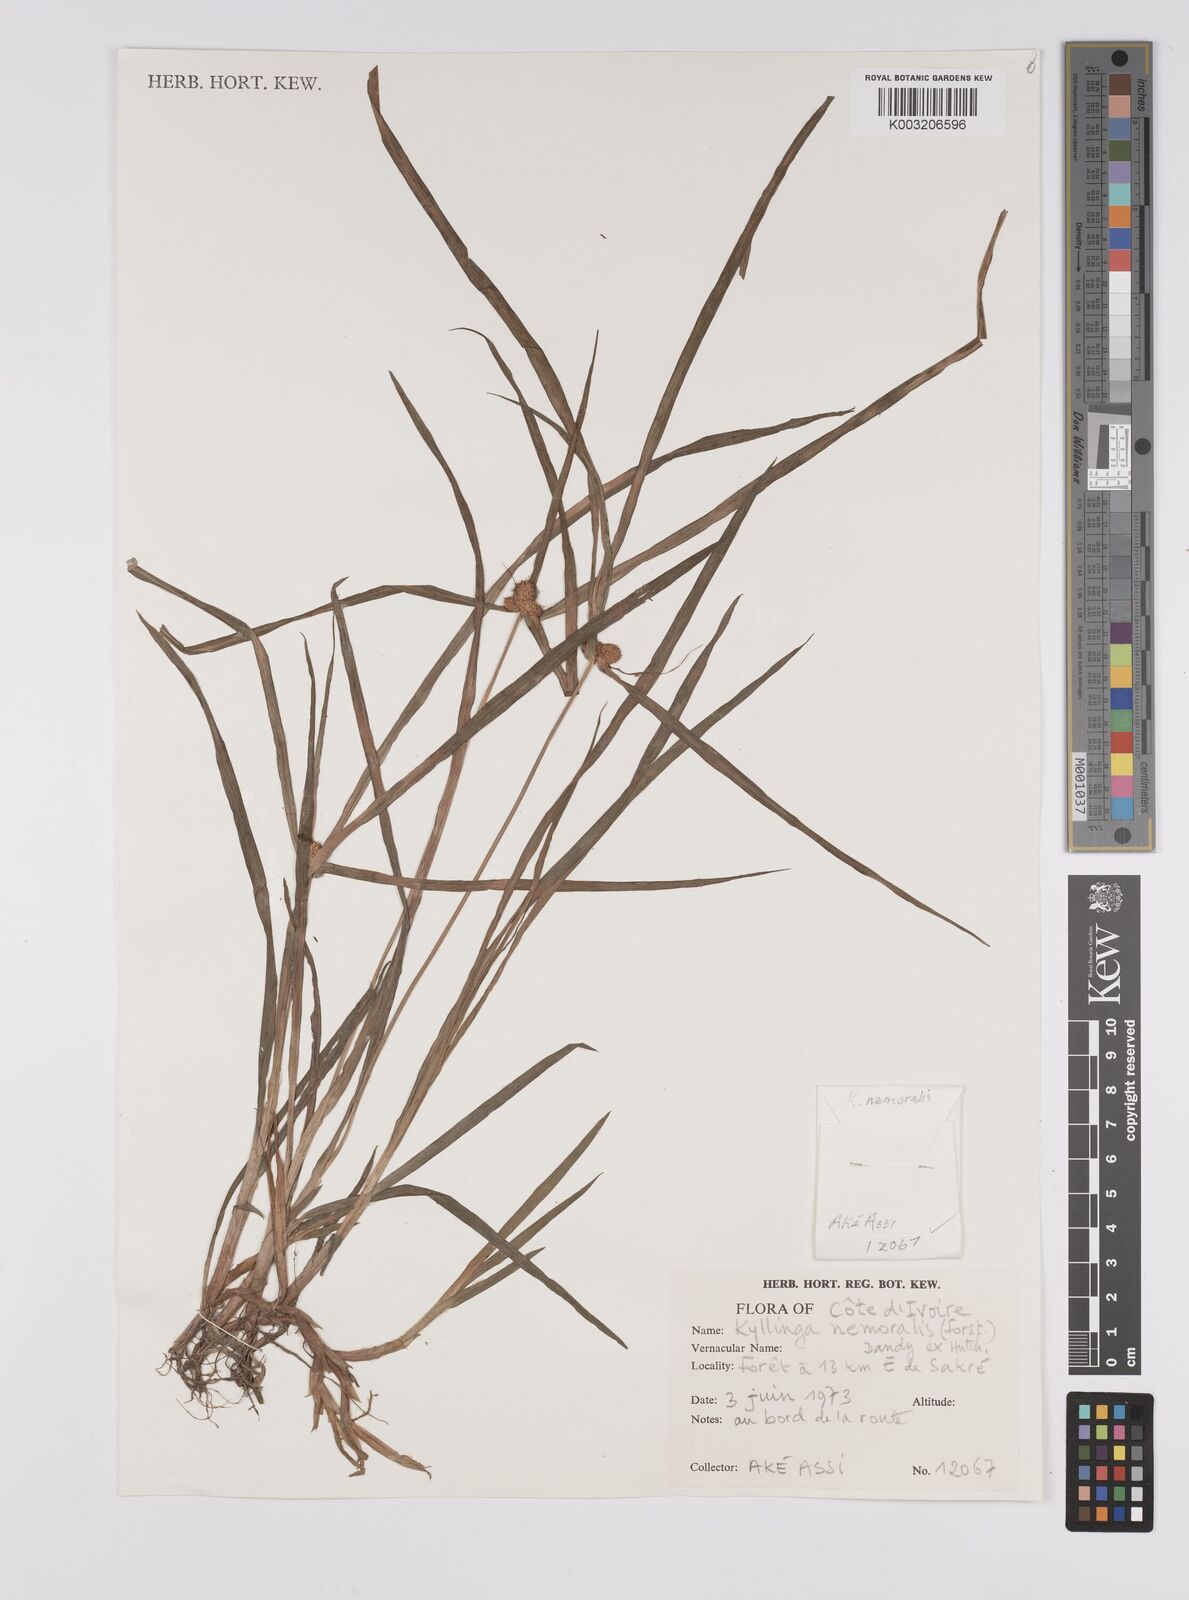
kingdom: Plantae
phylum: Tracheophyta
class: Liliopsida
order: Poales
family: Cyperaceae
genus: Cyperus
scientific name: Cyperus nemoralis
